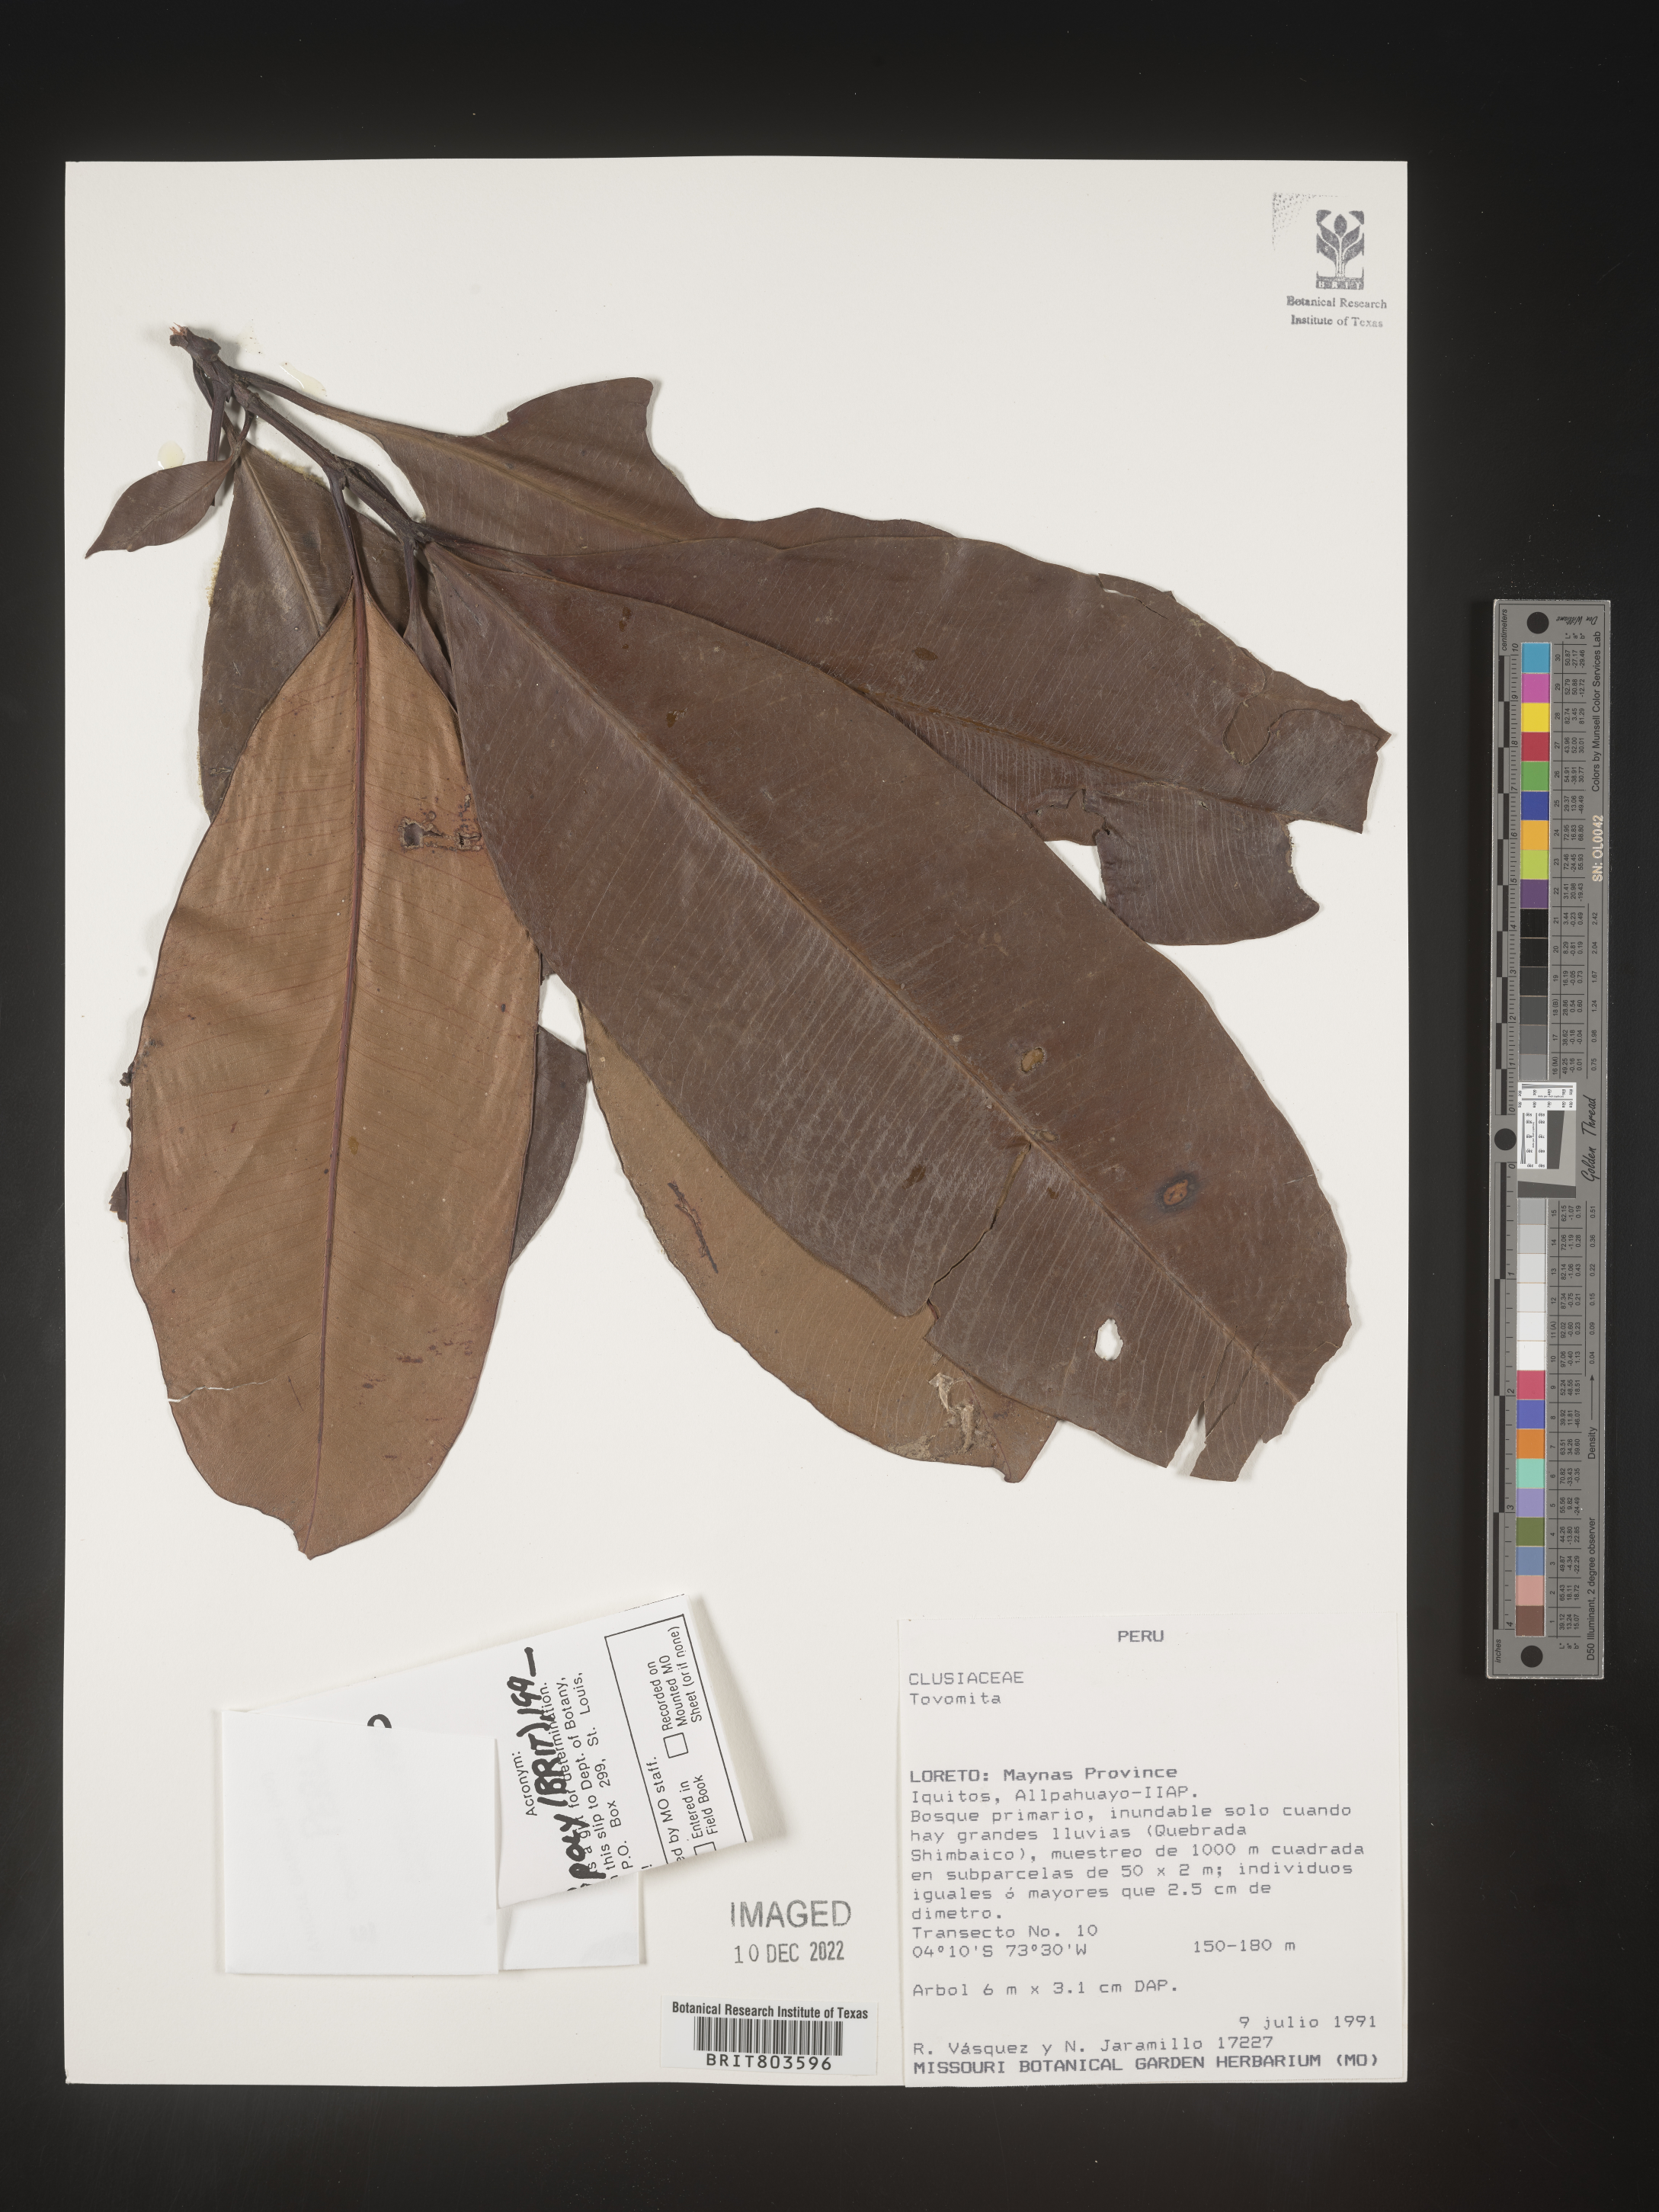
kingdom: Plantae
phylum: Tracheophyta
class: Magnoliopsida
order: Malpighiales
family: Clusiaceae
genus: Tovomita
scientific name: Tovomita
